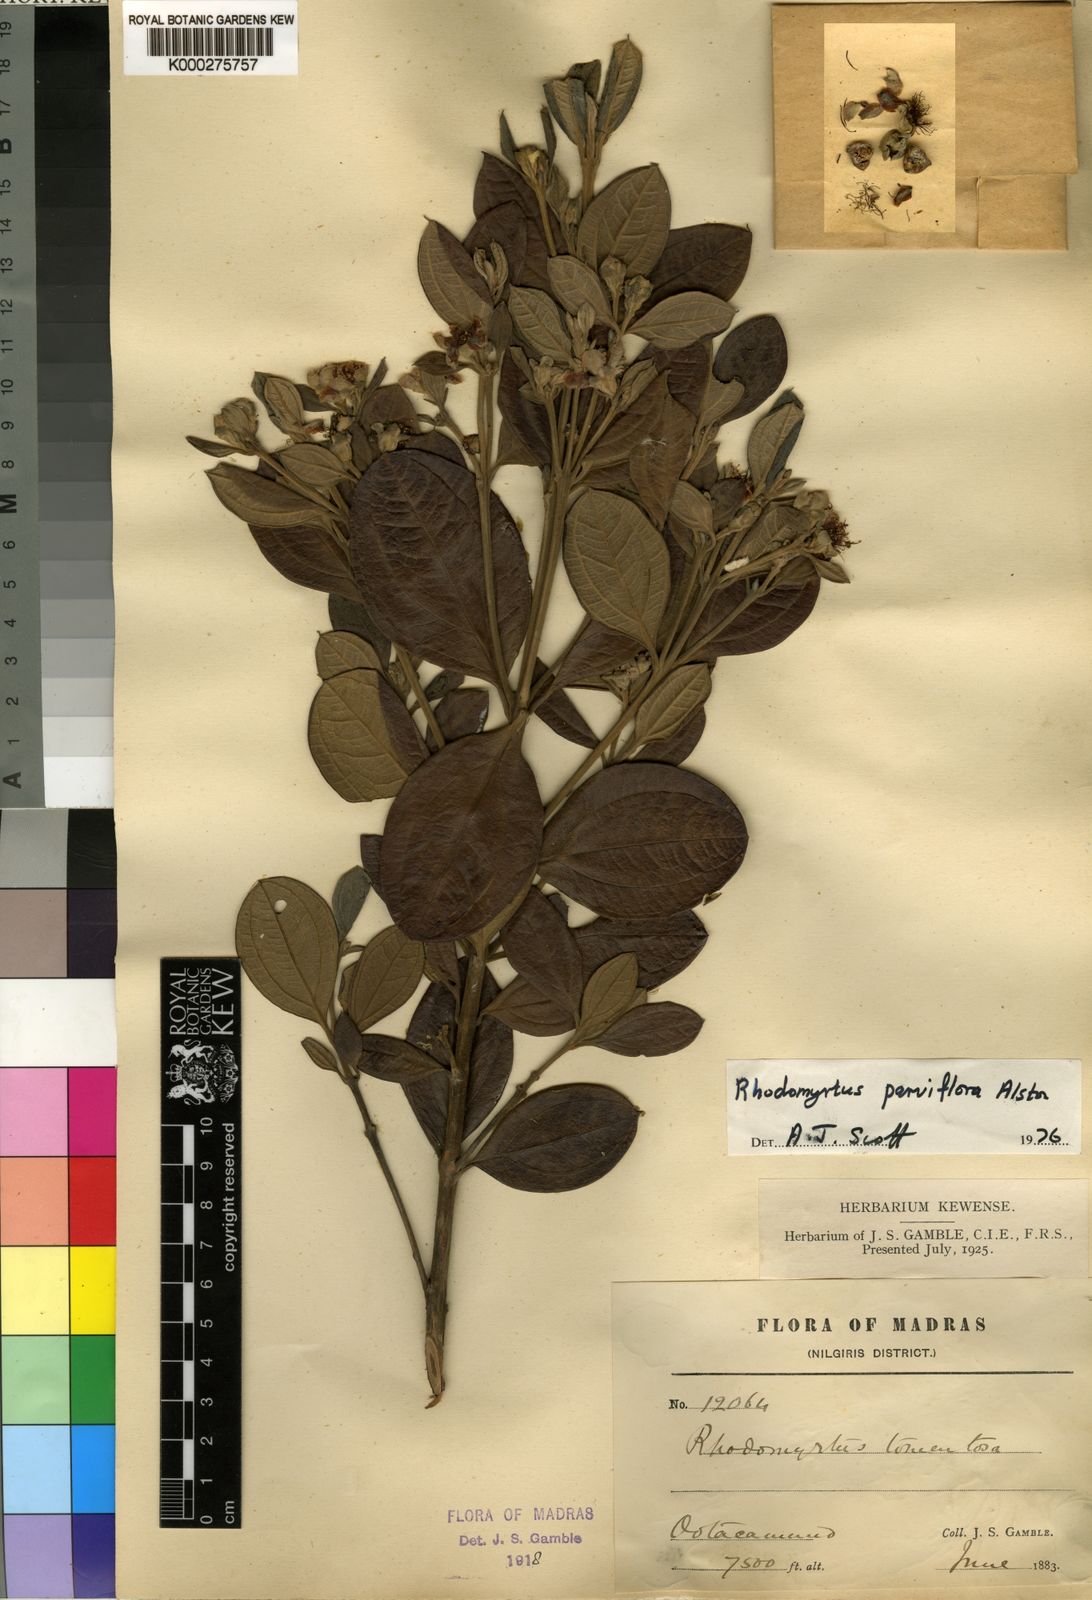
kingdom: Plantae
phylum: Tracheophyta
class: Magnoliopsida
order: Myrtales
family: Myrtaceae
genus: Rhodomyrtus
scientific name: Rhodomyrtus tomentosa
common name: Rose myrtle
